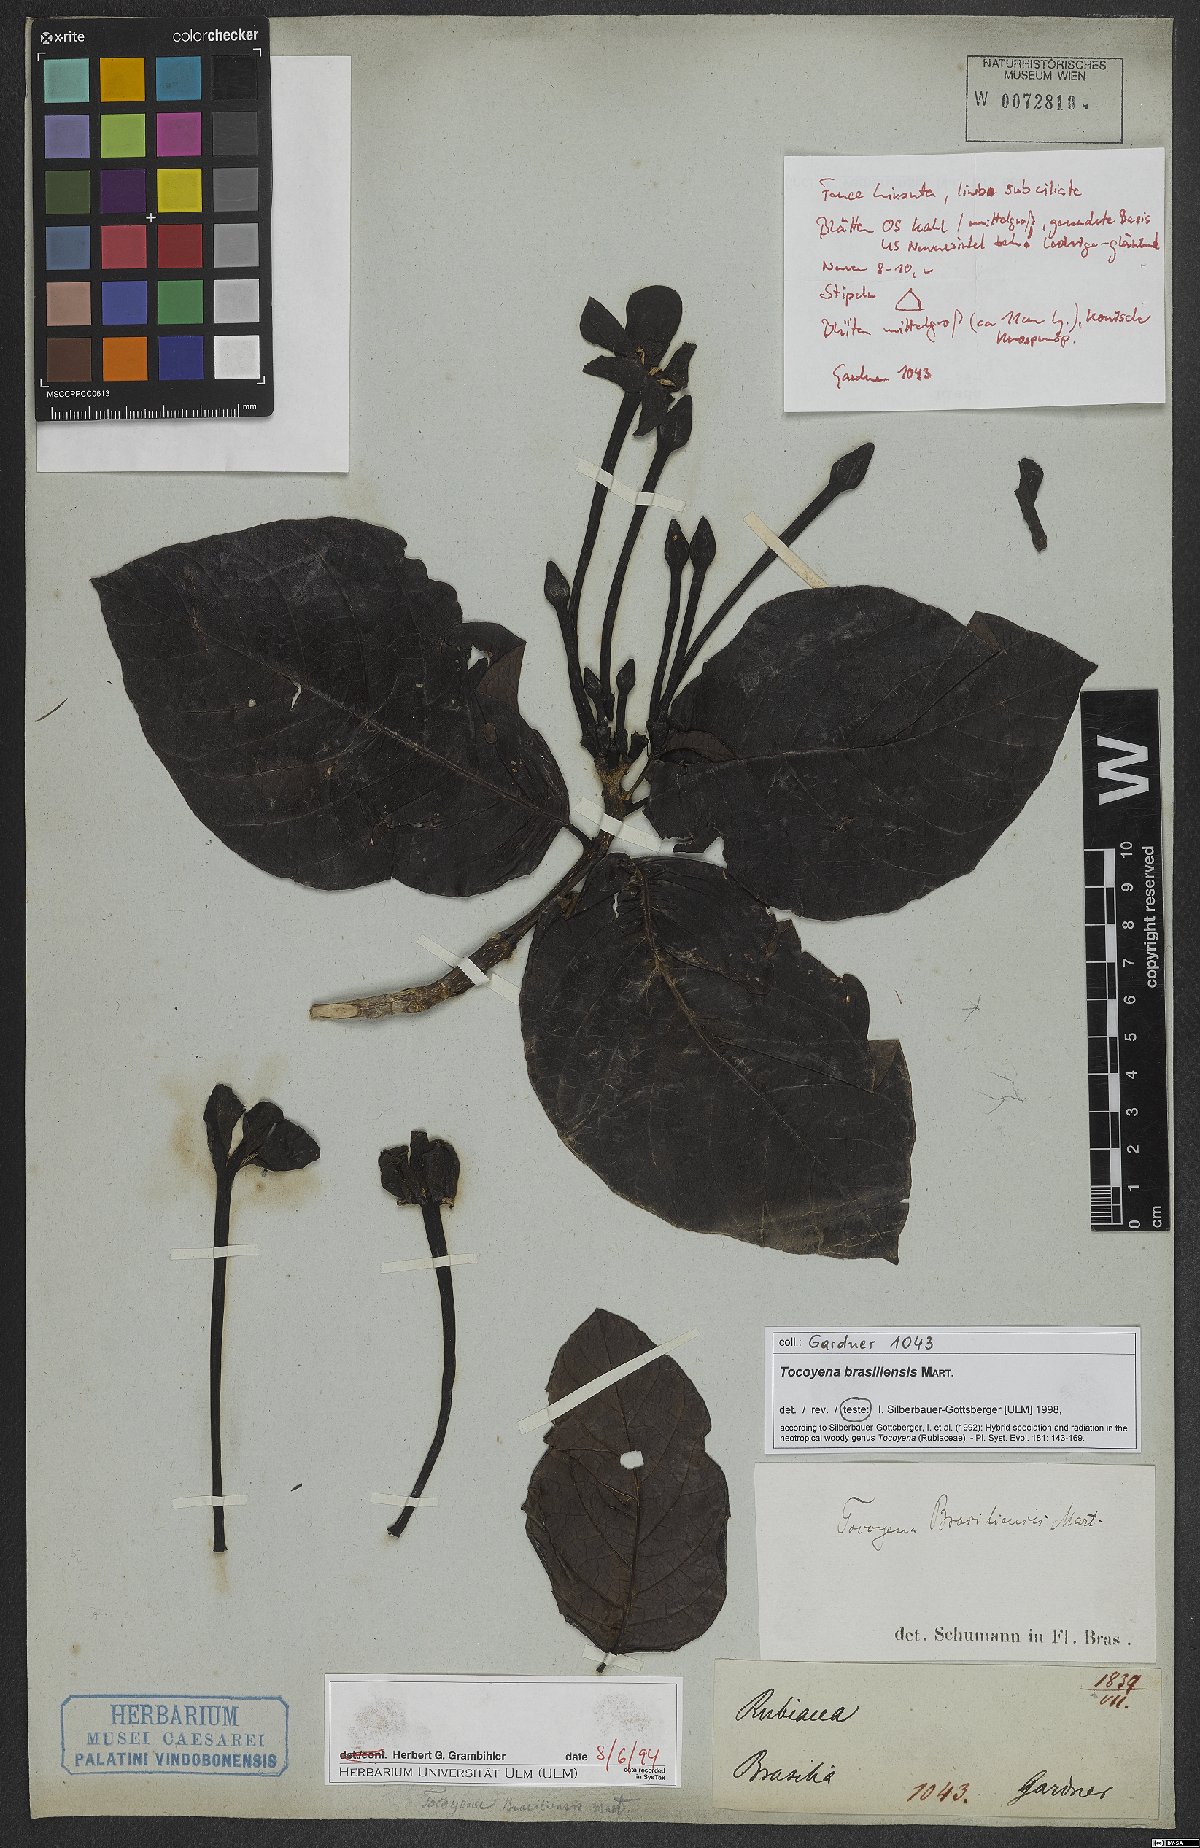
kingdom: Plantae
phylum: Tracheophyta
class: Magnoliopsida
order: Gentianales
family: Rubiaceae
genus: Tocoyena
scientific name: Tocoyena sprucei
